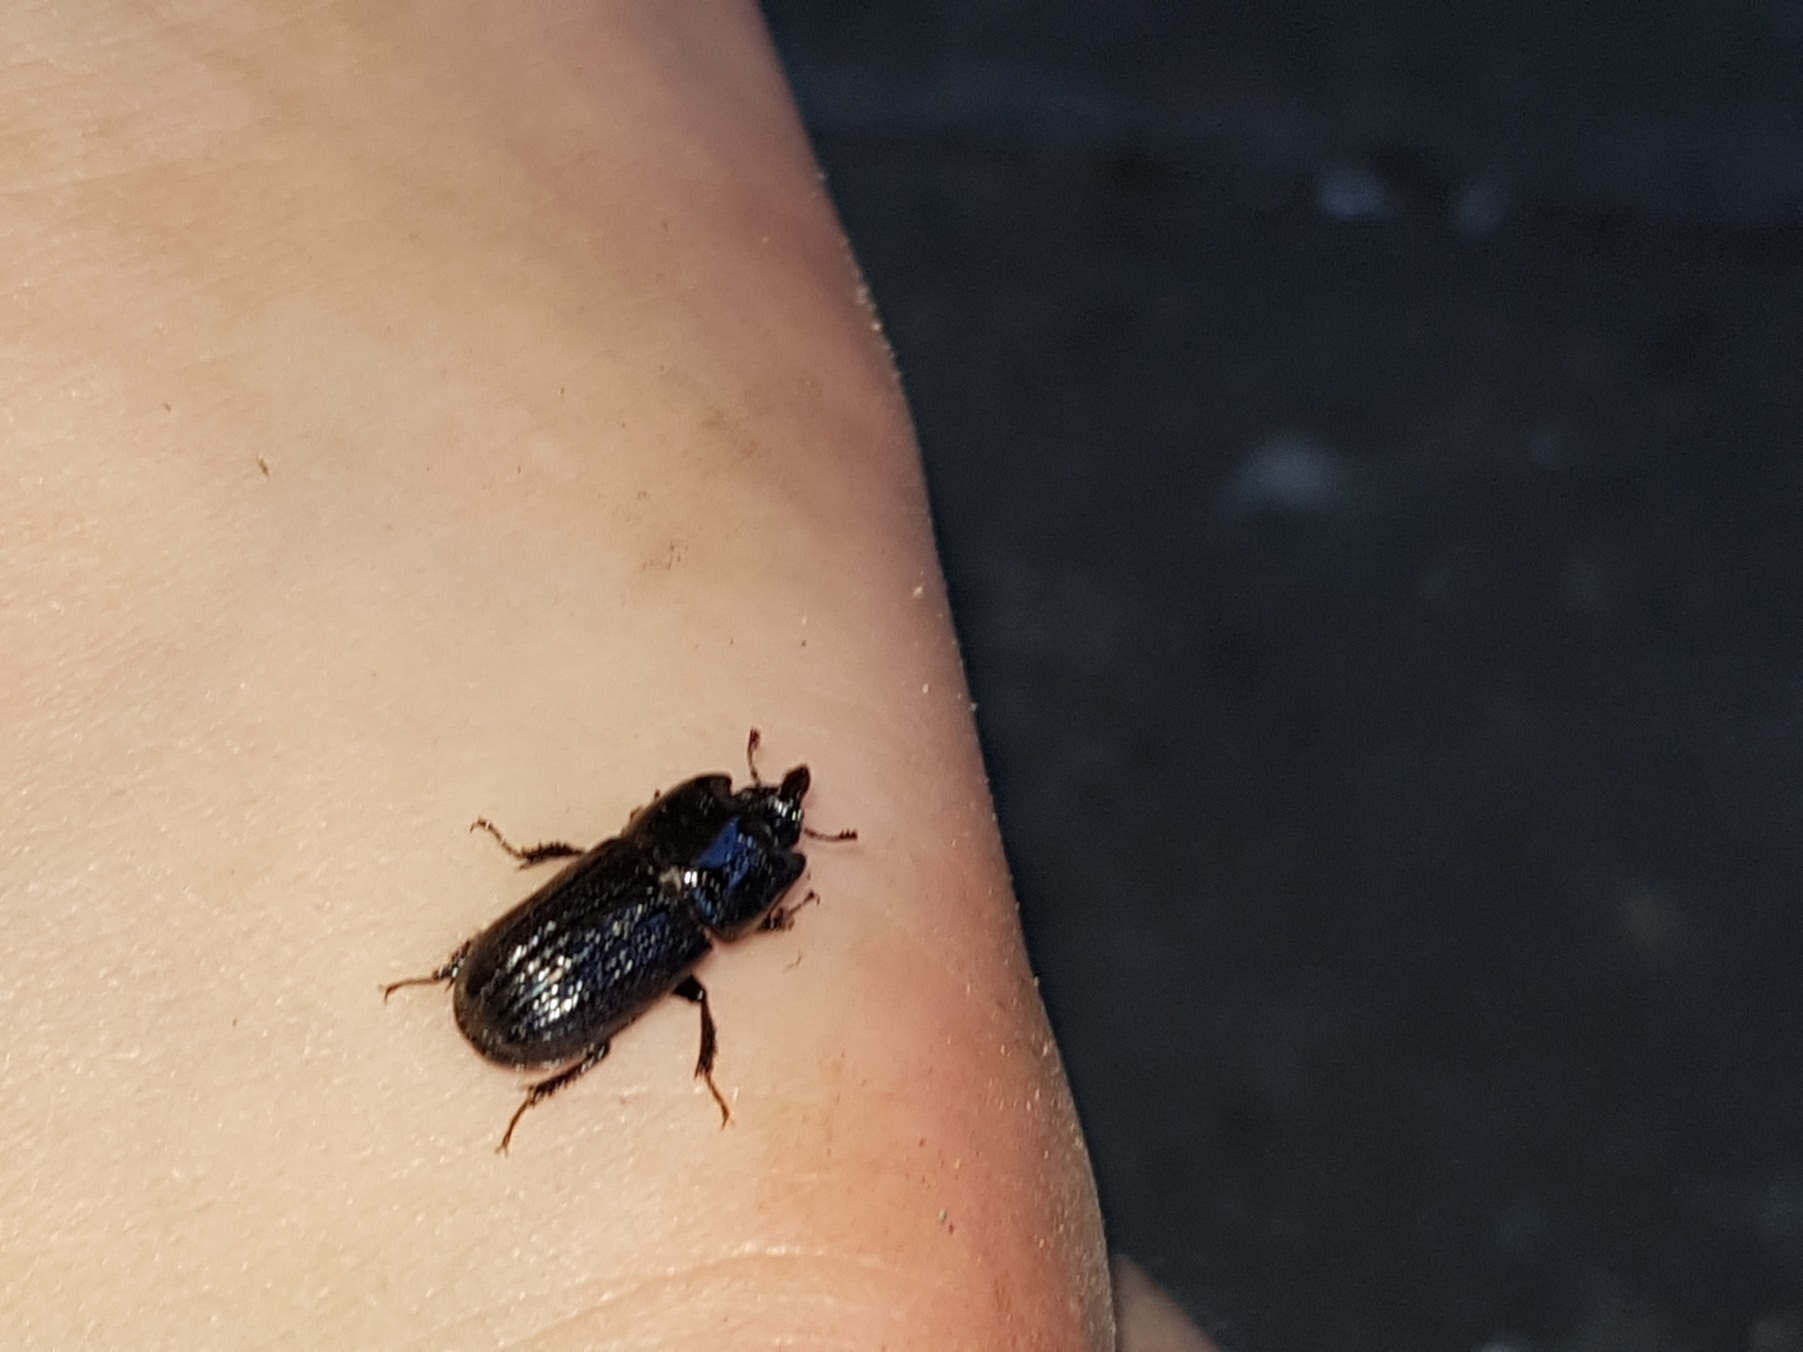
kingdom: Animalia
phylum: Arthropoda
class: Insecta
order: Coleoptera
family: Lucanidae
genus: Sinodendron
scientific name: Sinodendron cylindricum
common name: Valsehjort
